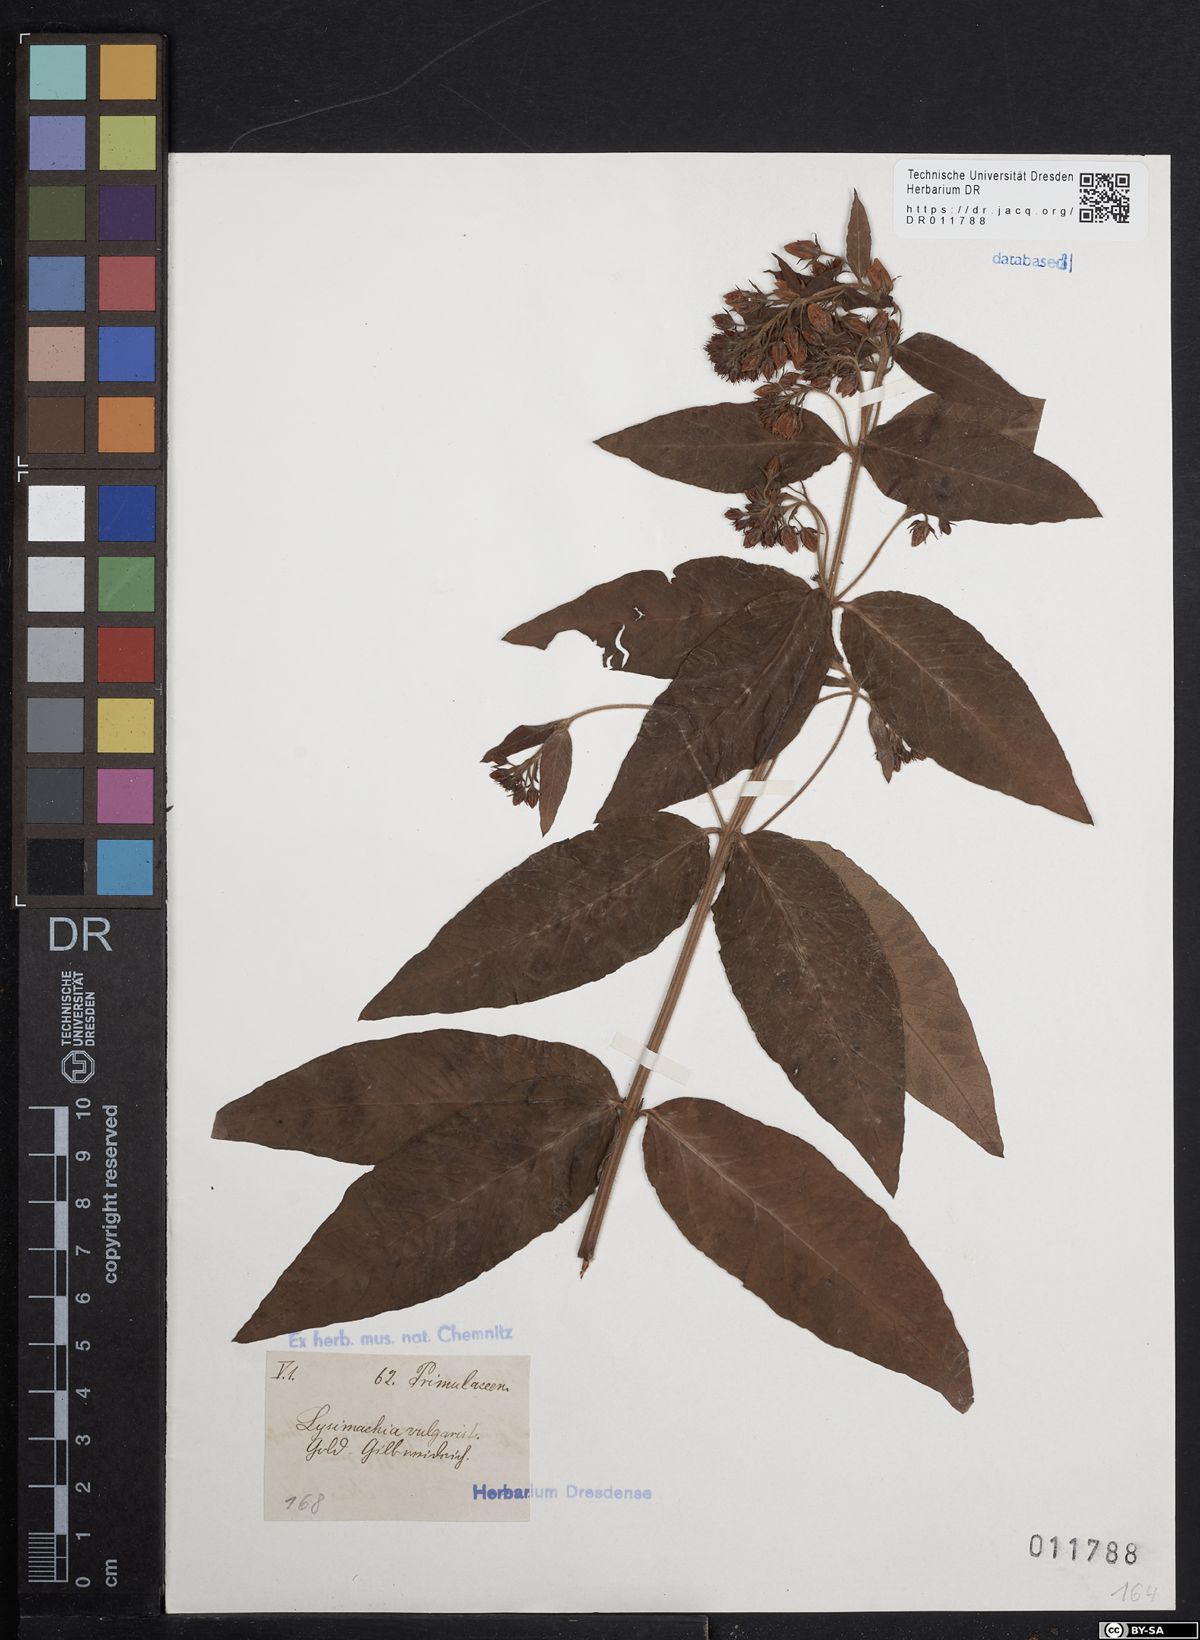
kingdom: Plantae
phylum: Tracheophyta
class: Magnoliopsida
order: Ericales
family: Primulaceae
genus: Lysimachia
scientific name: Lysimachia vulgaris
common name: Yellow loosestrife
